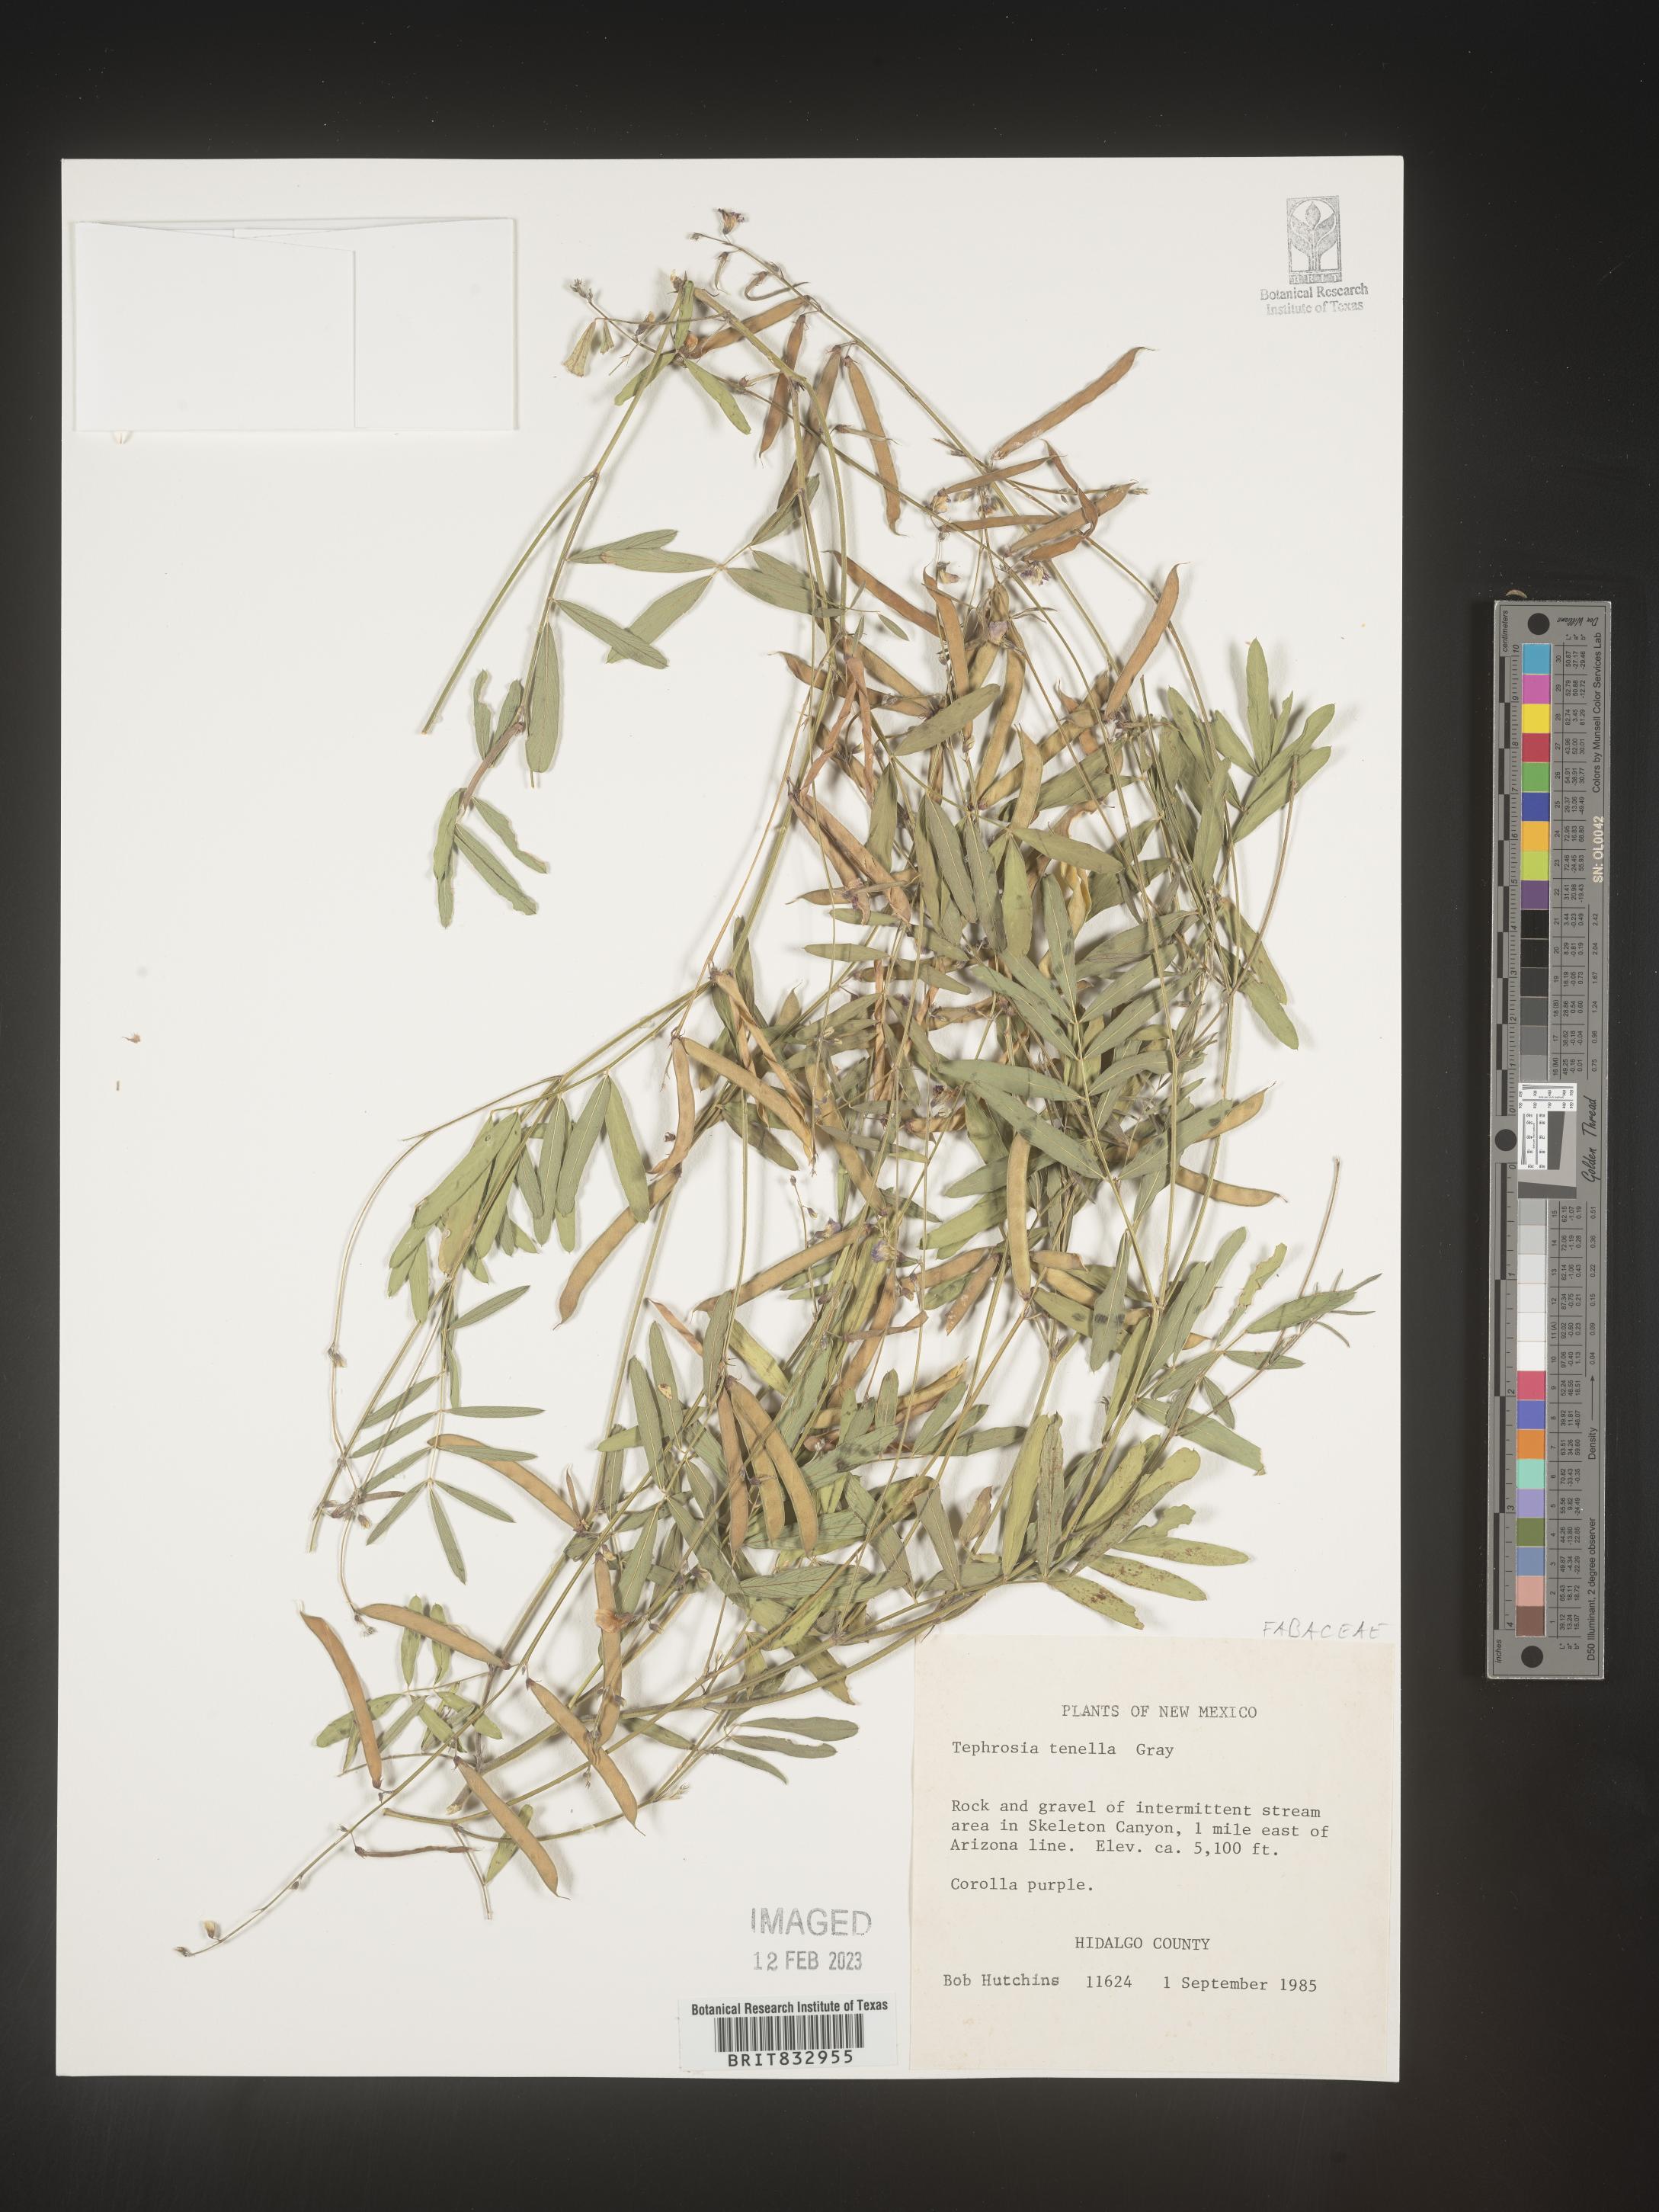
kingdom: Plantae
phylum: Tracheophyta
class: Magnoliopsida
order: Fabales
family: Fabaceae
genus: Tephrosia
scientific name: Tephrosia domingensis
